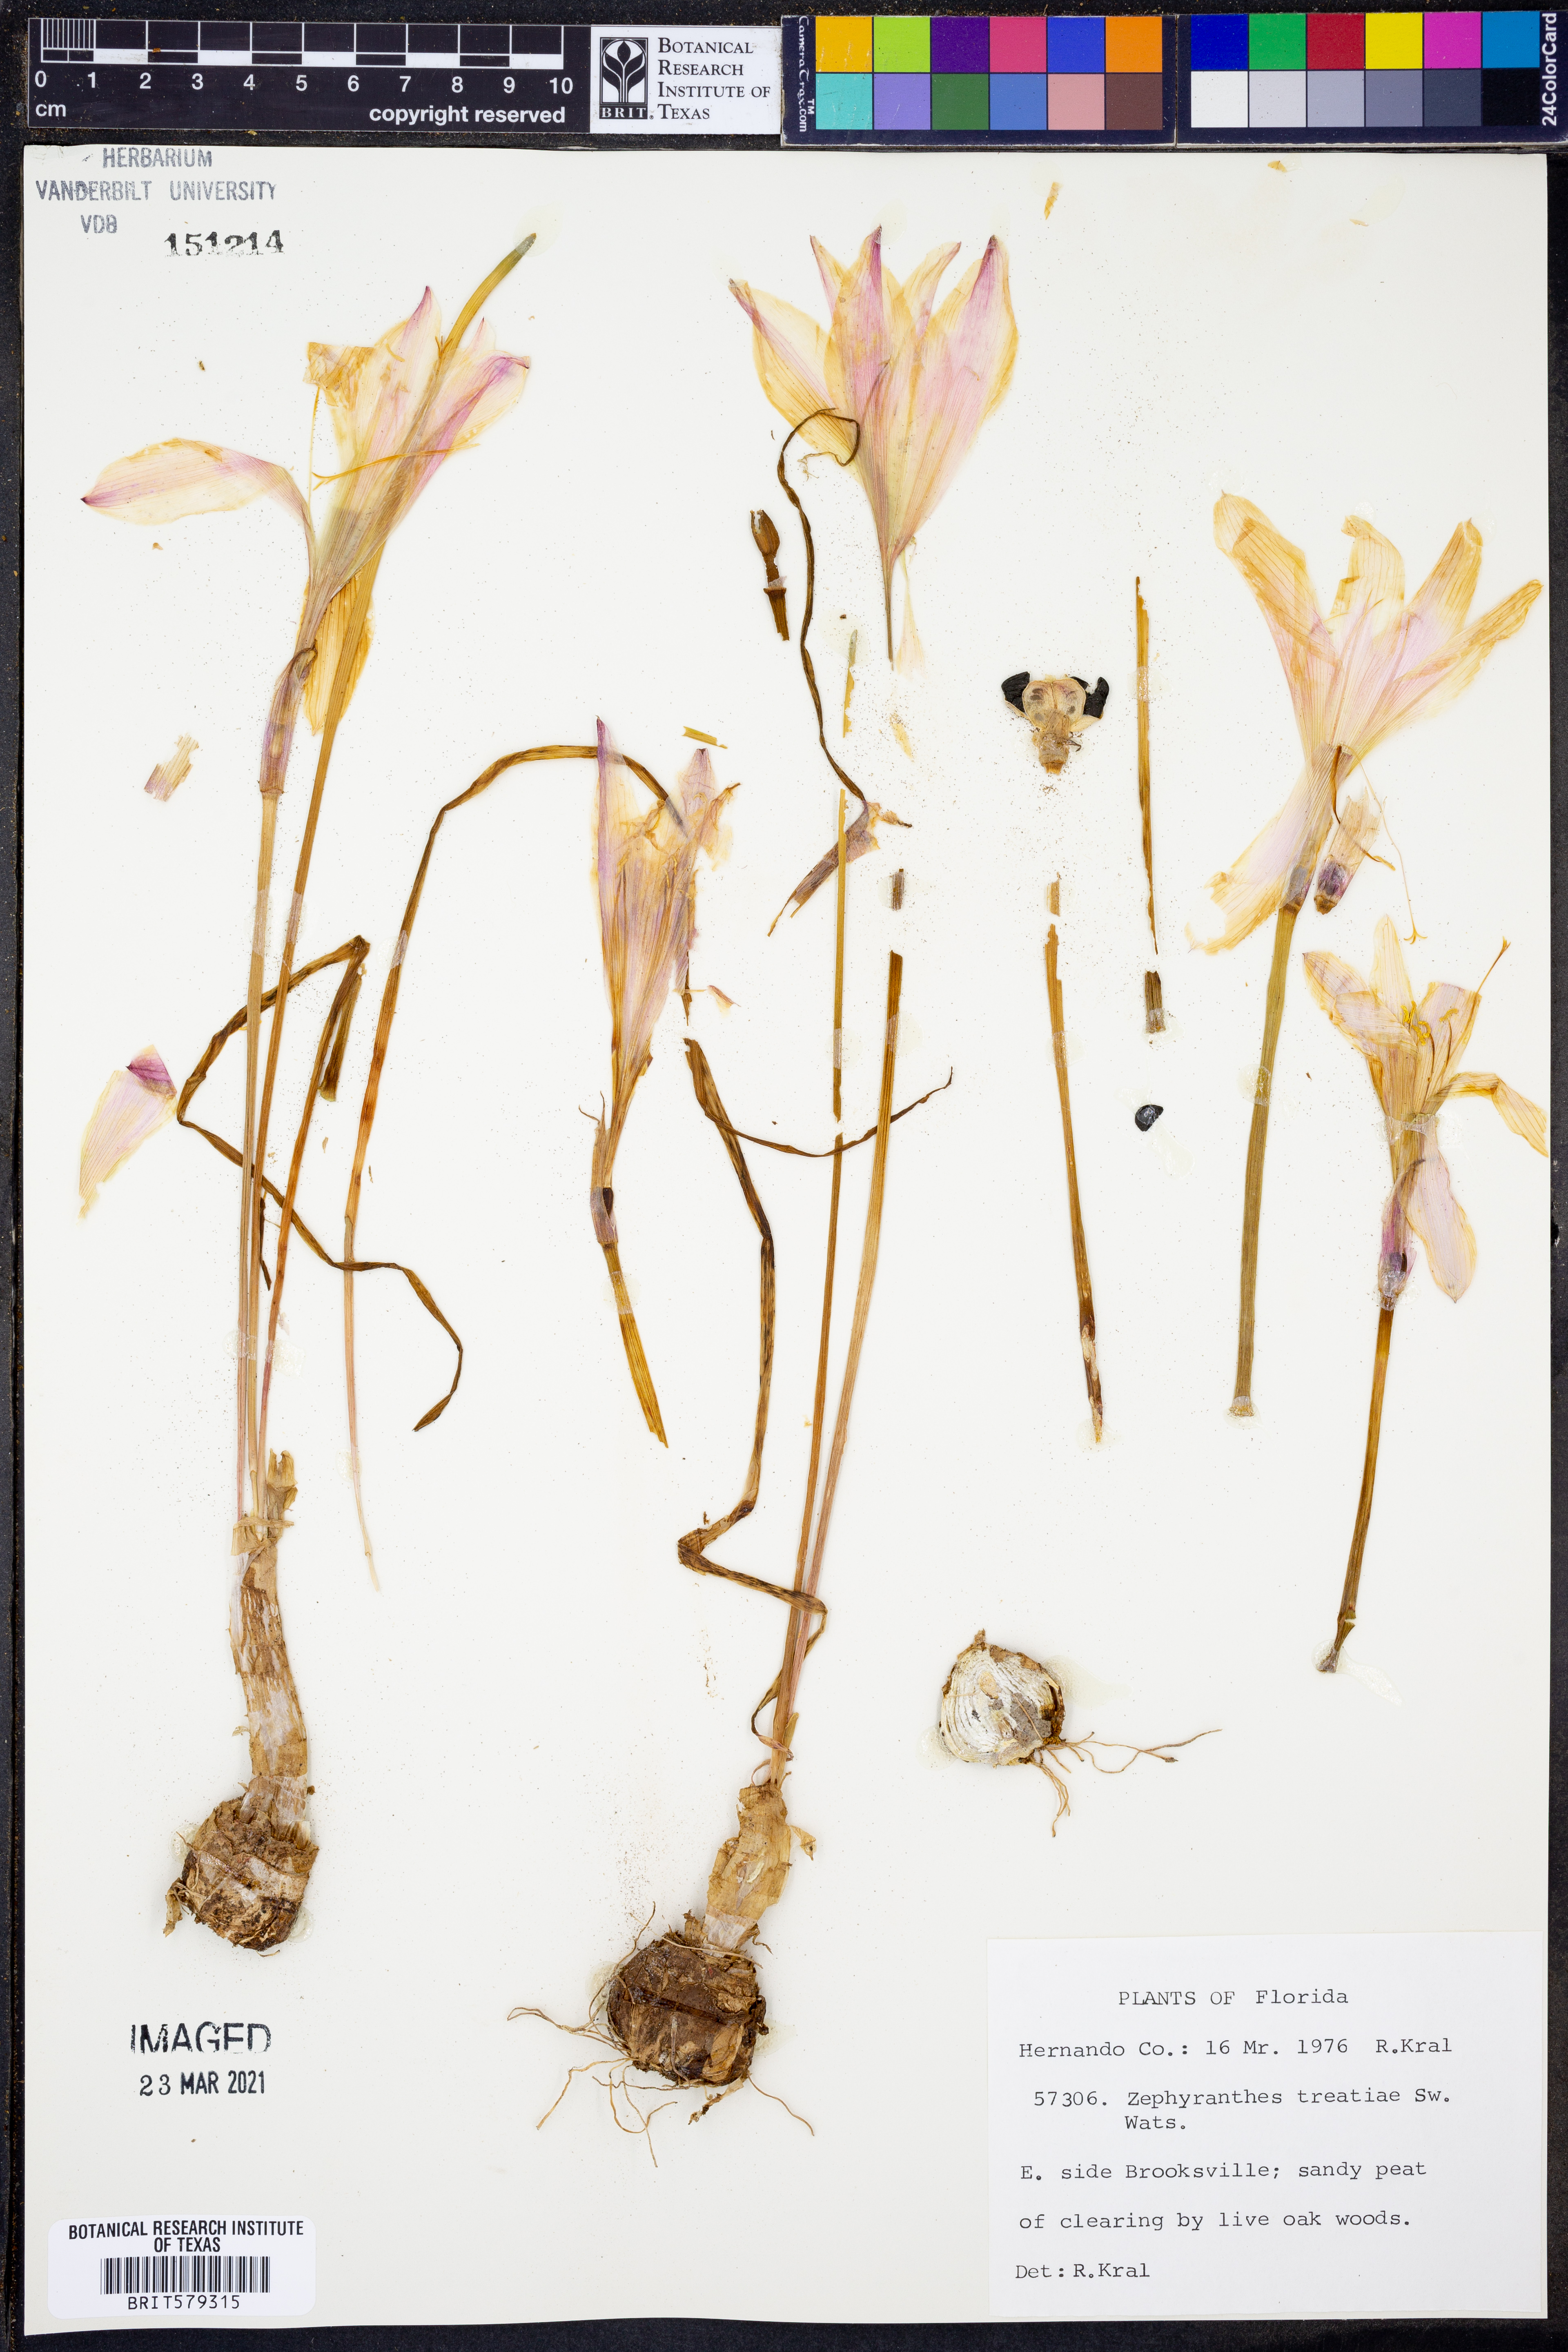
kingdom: Plantae
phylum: Tracheophyta
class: Liliopsida
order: Asparagales
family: Amaryllidaceae
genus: Zephyranthes
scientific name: Zephyranthes treatiae
